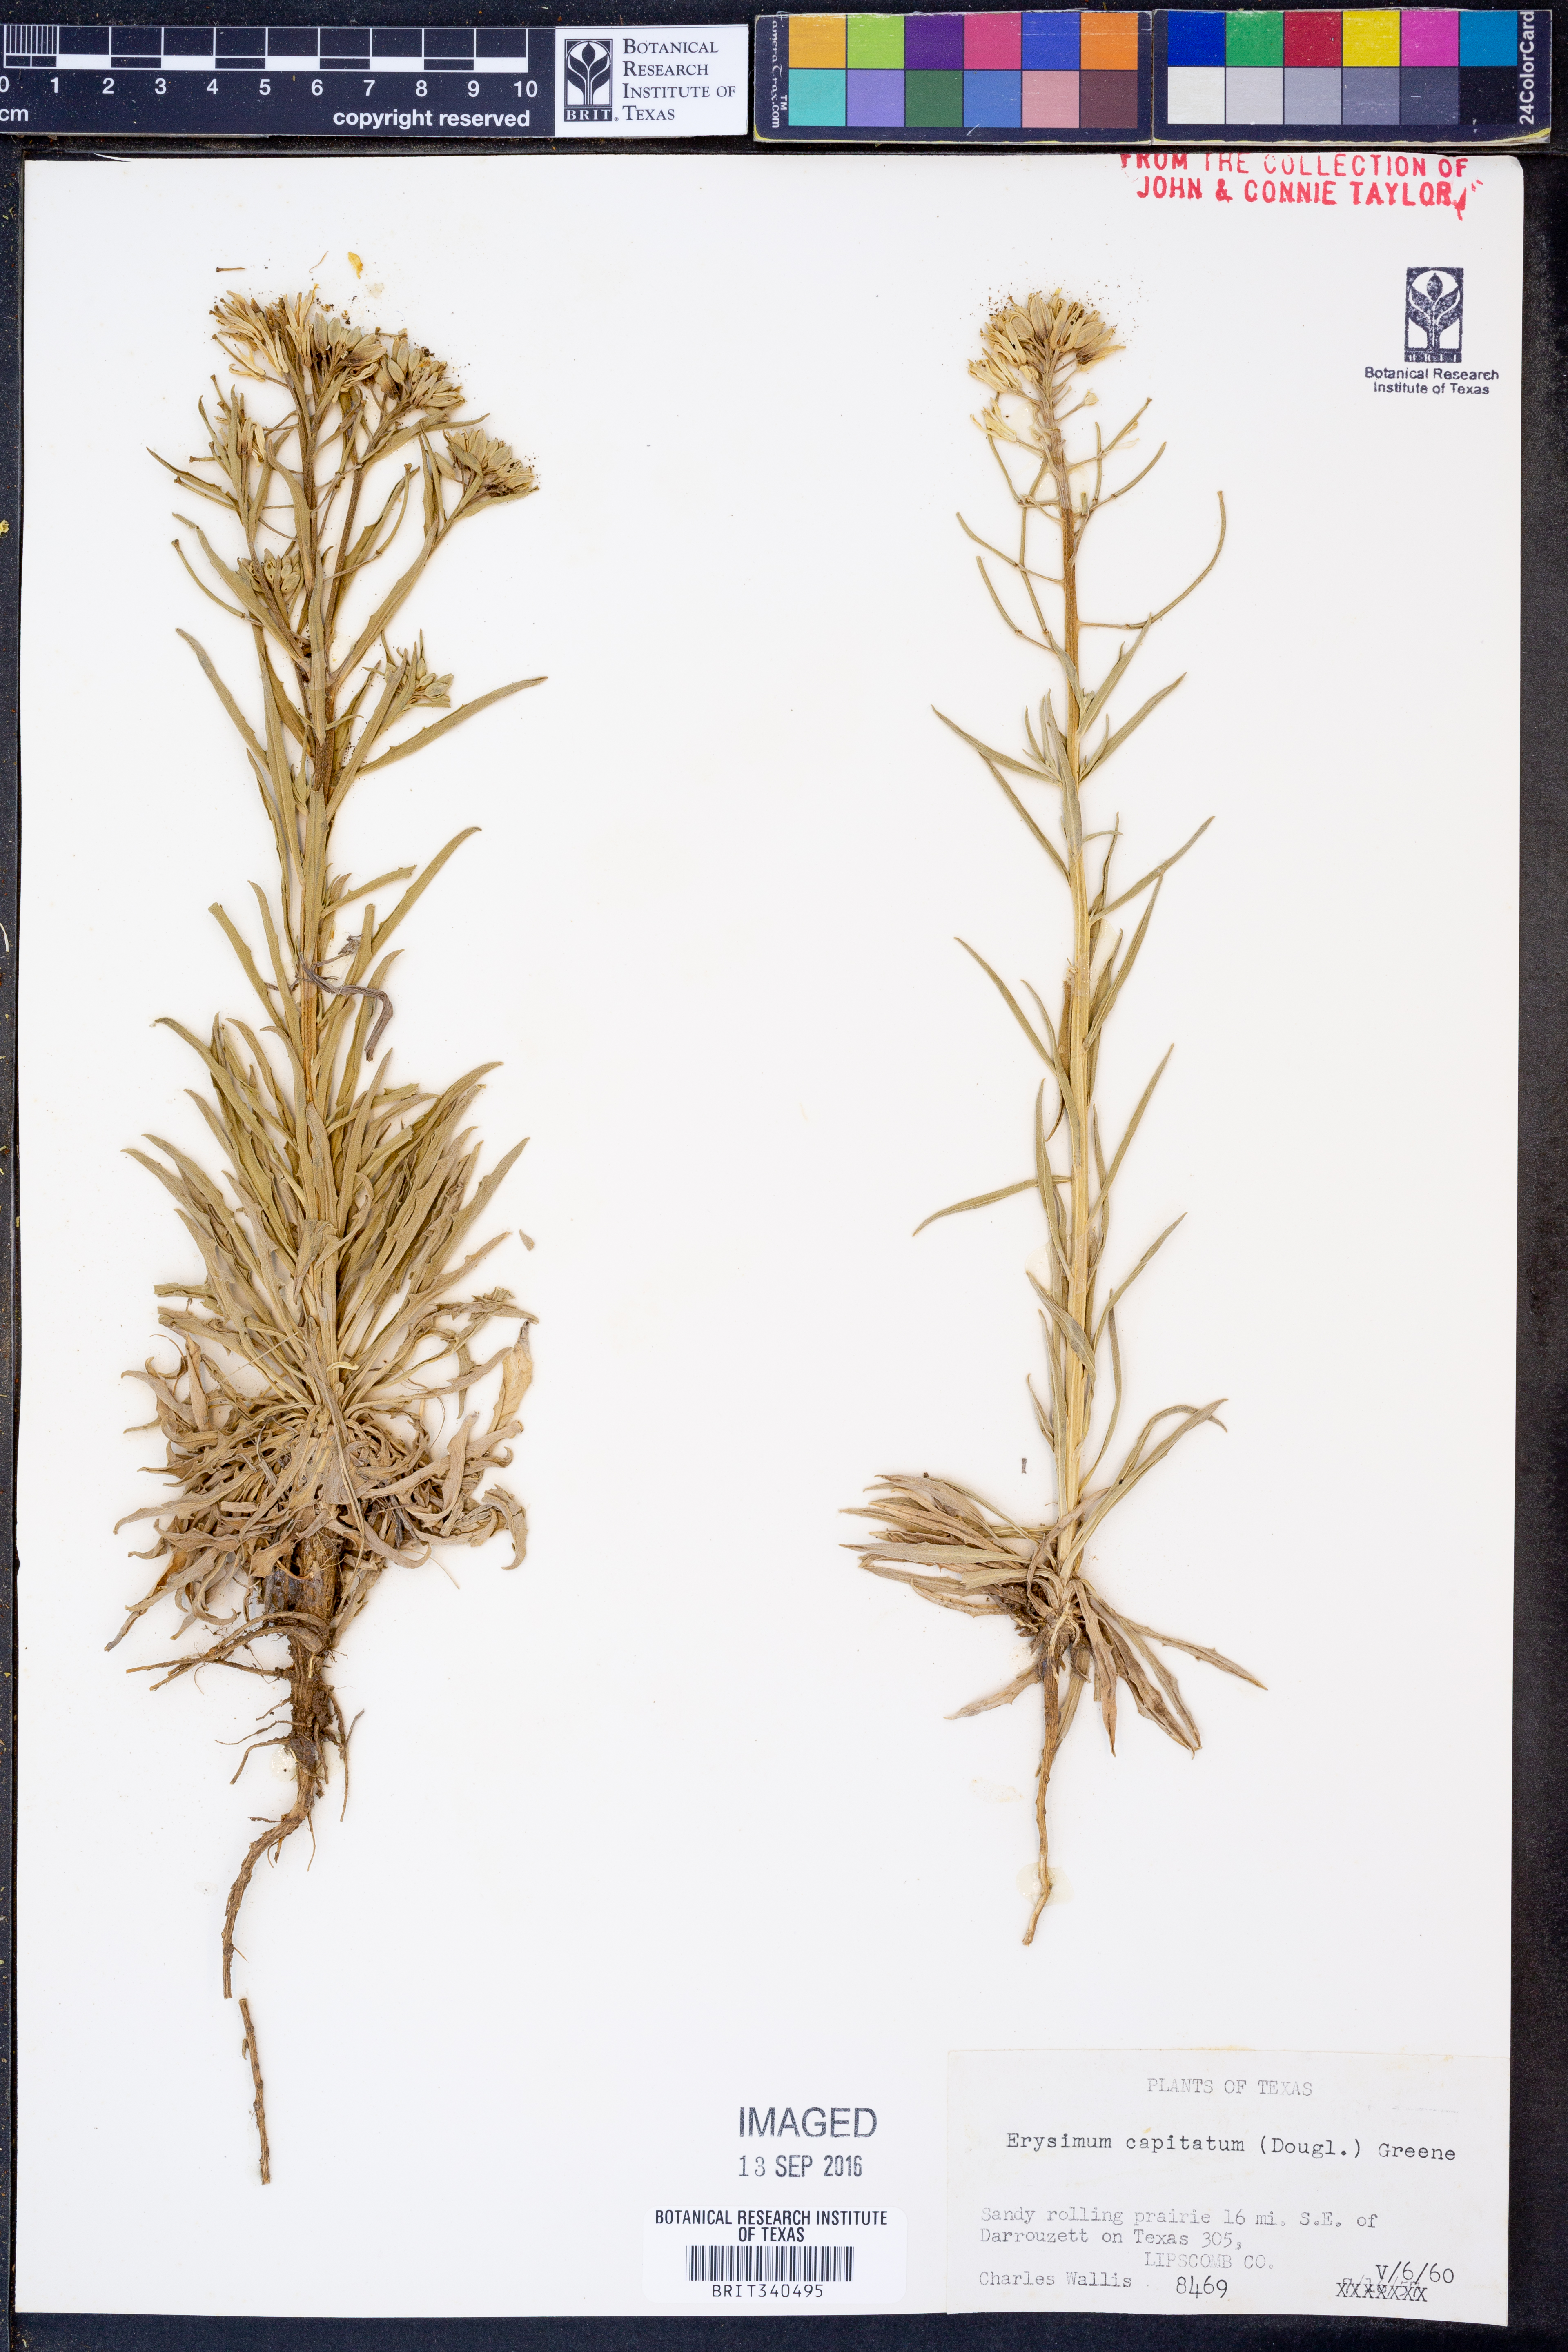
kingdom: Plantae
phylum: Tracheophyta
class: Magnoliopsida
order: Brassicales
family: Brassicaceae
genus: Erysimum
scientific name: Erysimum capitatum
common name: Western wallflower
